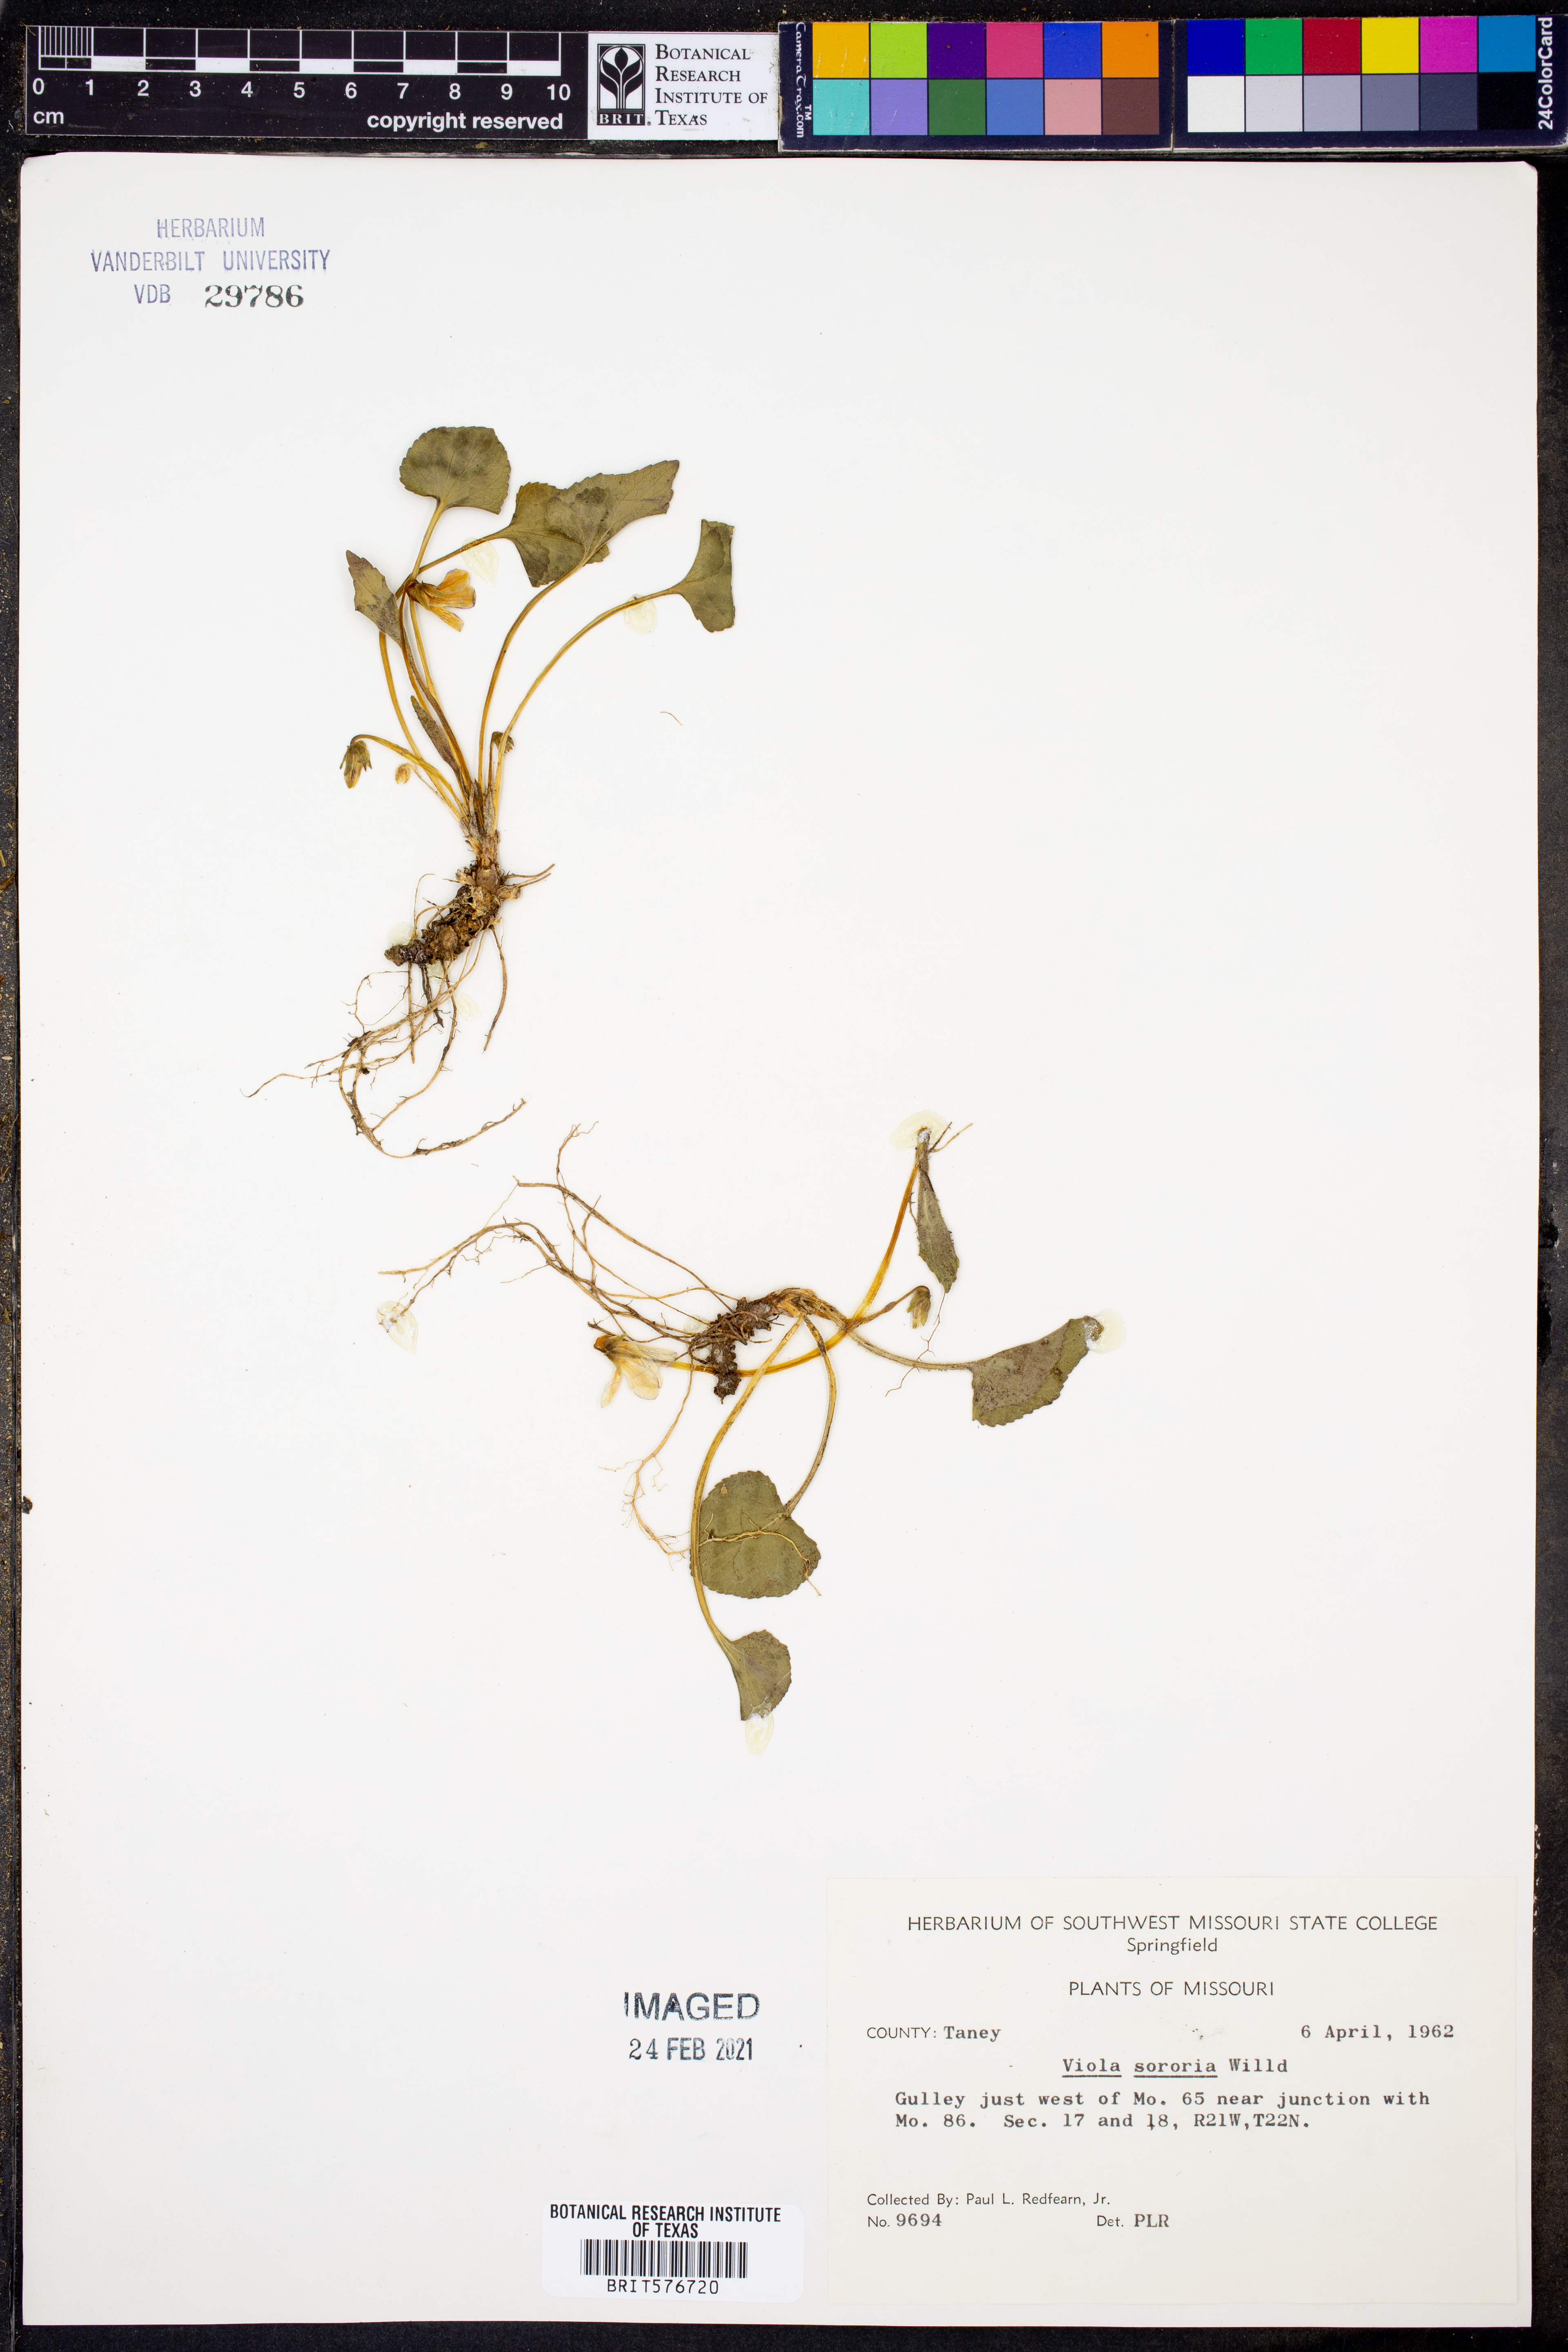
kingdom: Plantae
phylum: Tracheophyta
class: Magnoliopsida
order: Malpighiales
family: Violaceae
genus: Viola
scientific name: Viola sororia
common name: Dooryard violet
